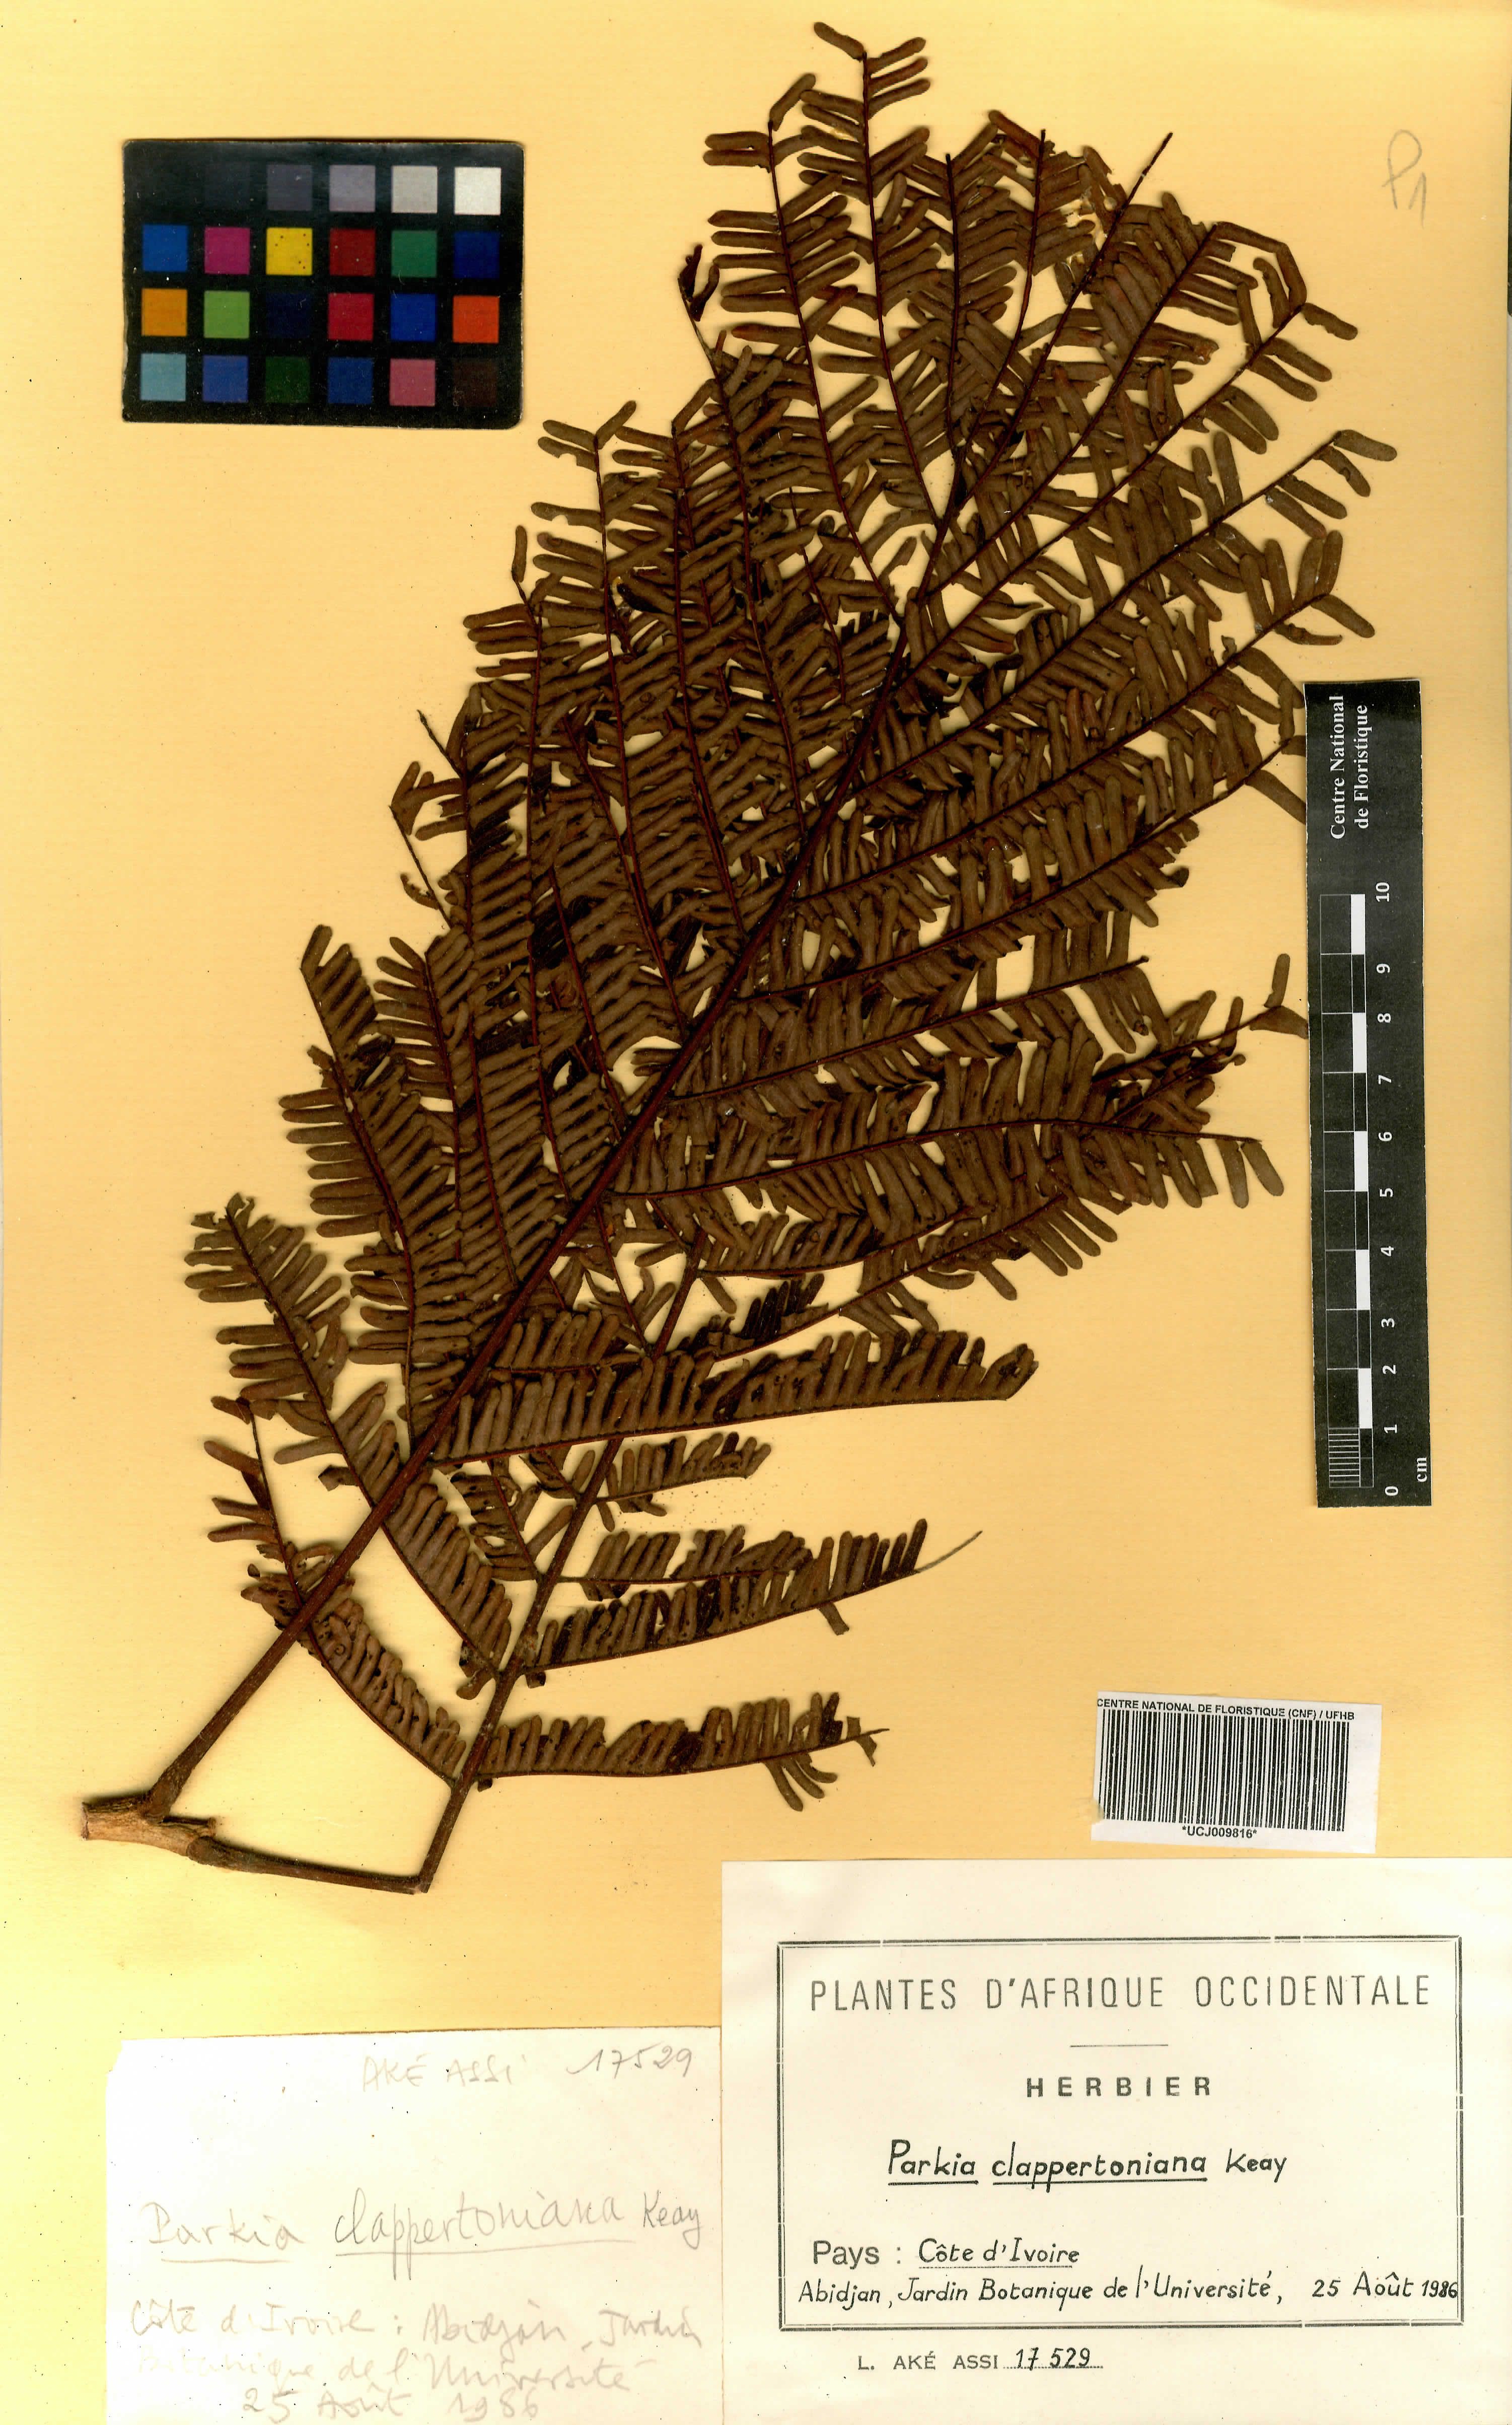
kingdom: Plantae
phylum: Tracheophyta
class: Magnoliopsida
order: Fabales
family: Fabaceae
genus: Parkia
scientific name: Parkia biglobosa
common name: African locust-bean
